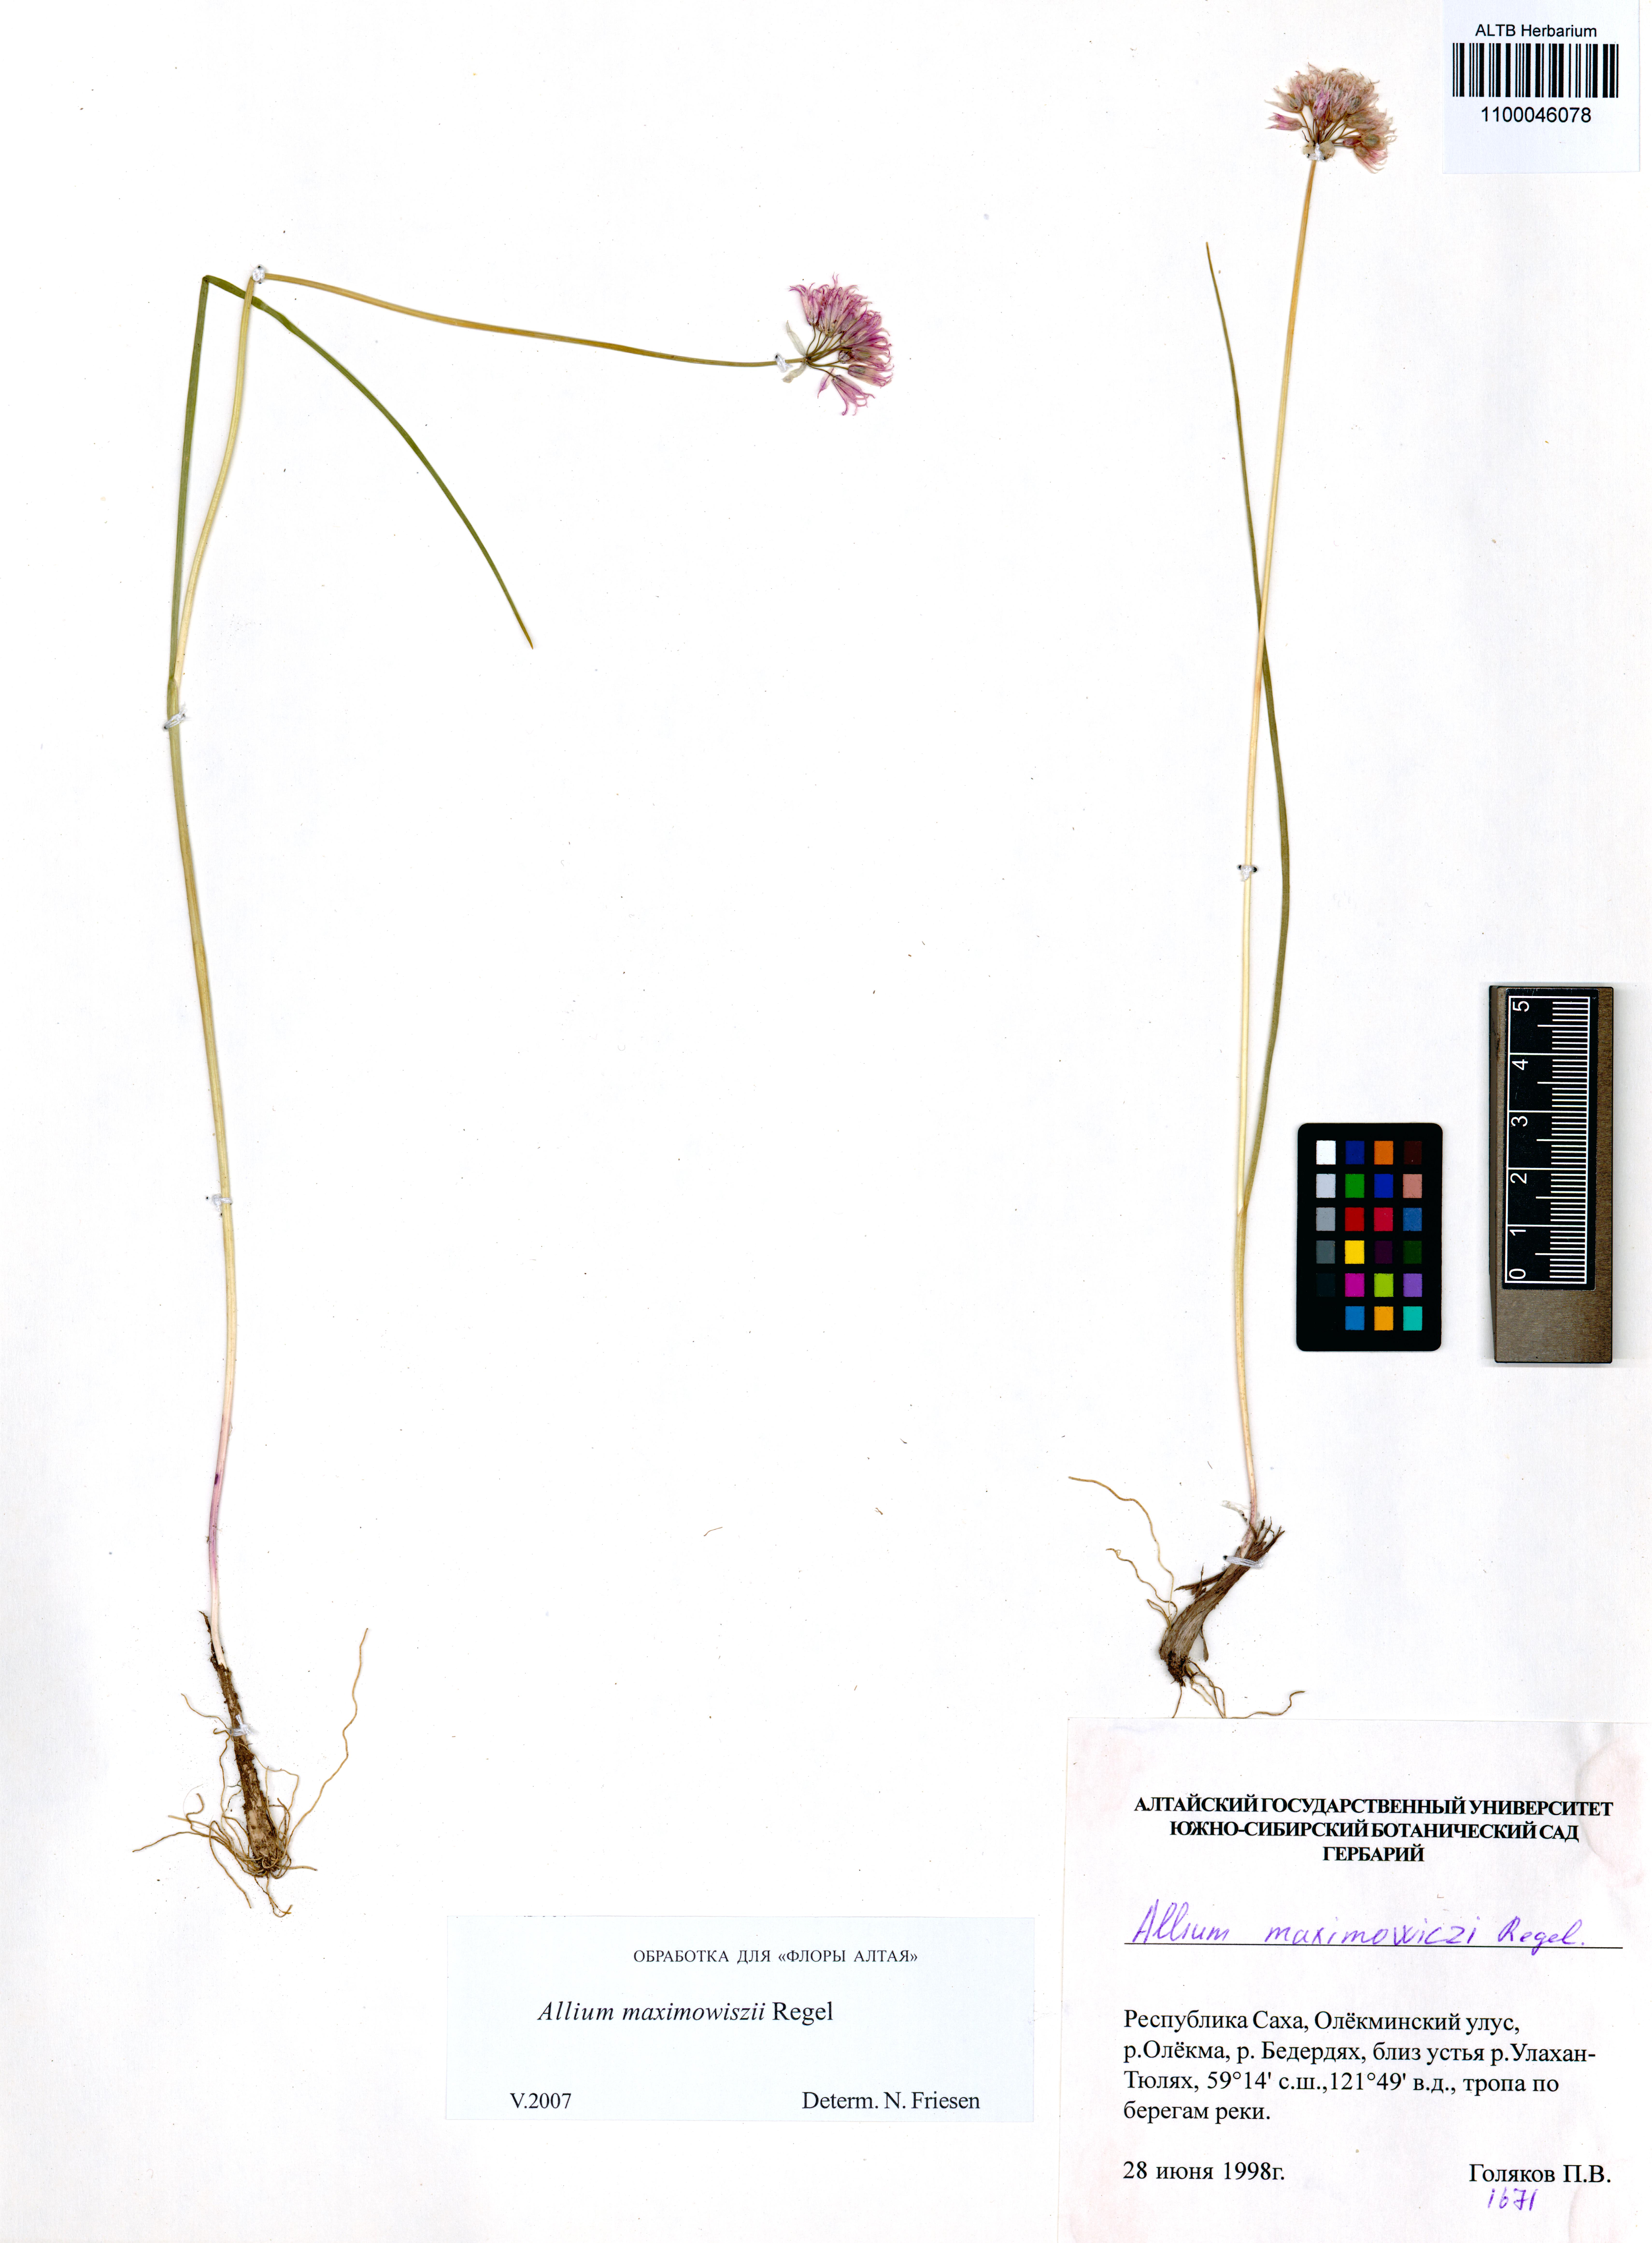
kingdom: Plantae
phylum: Tracheophyta
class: Liliopsida
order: Asparagales
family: Amaryllidaceae
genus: Allium
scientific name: Allium maximowiczii
